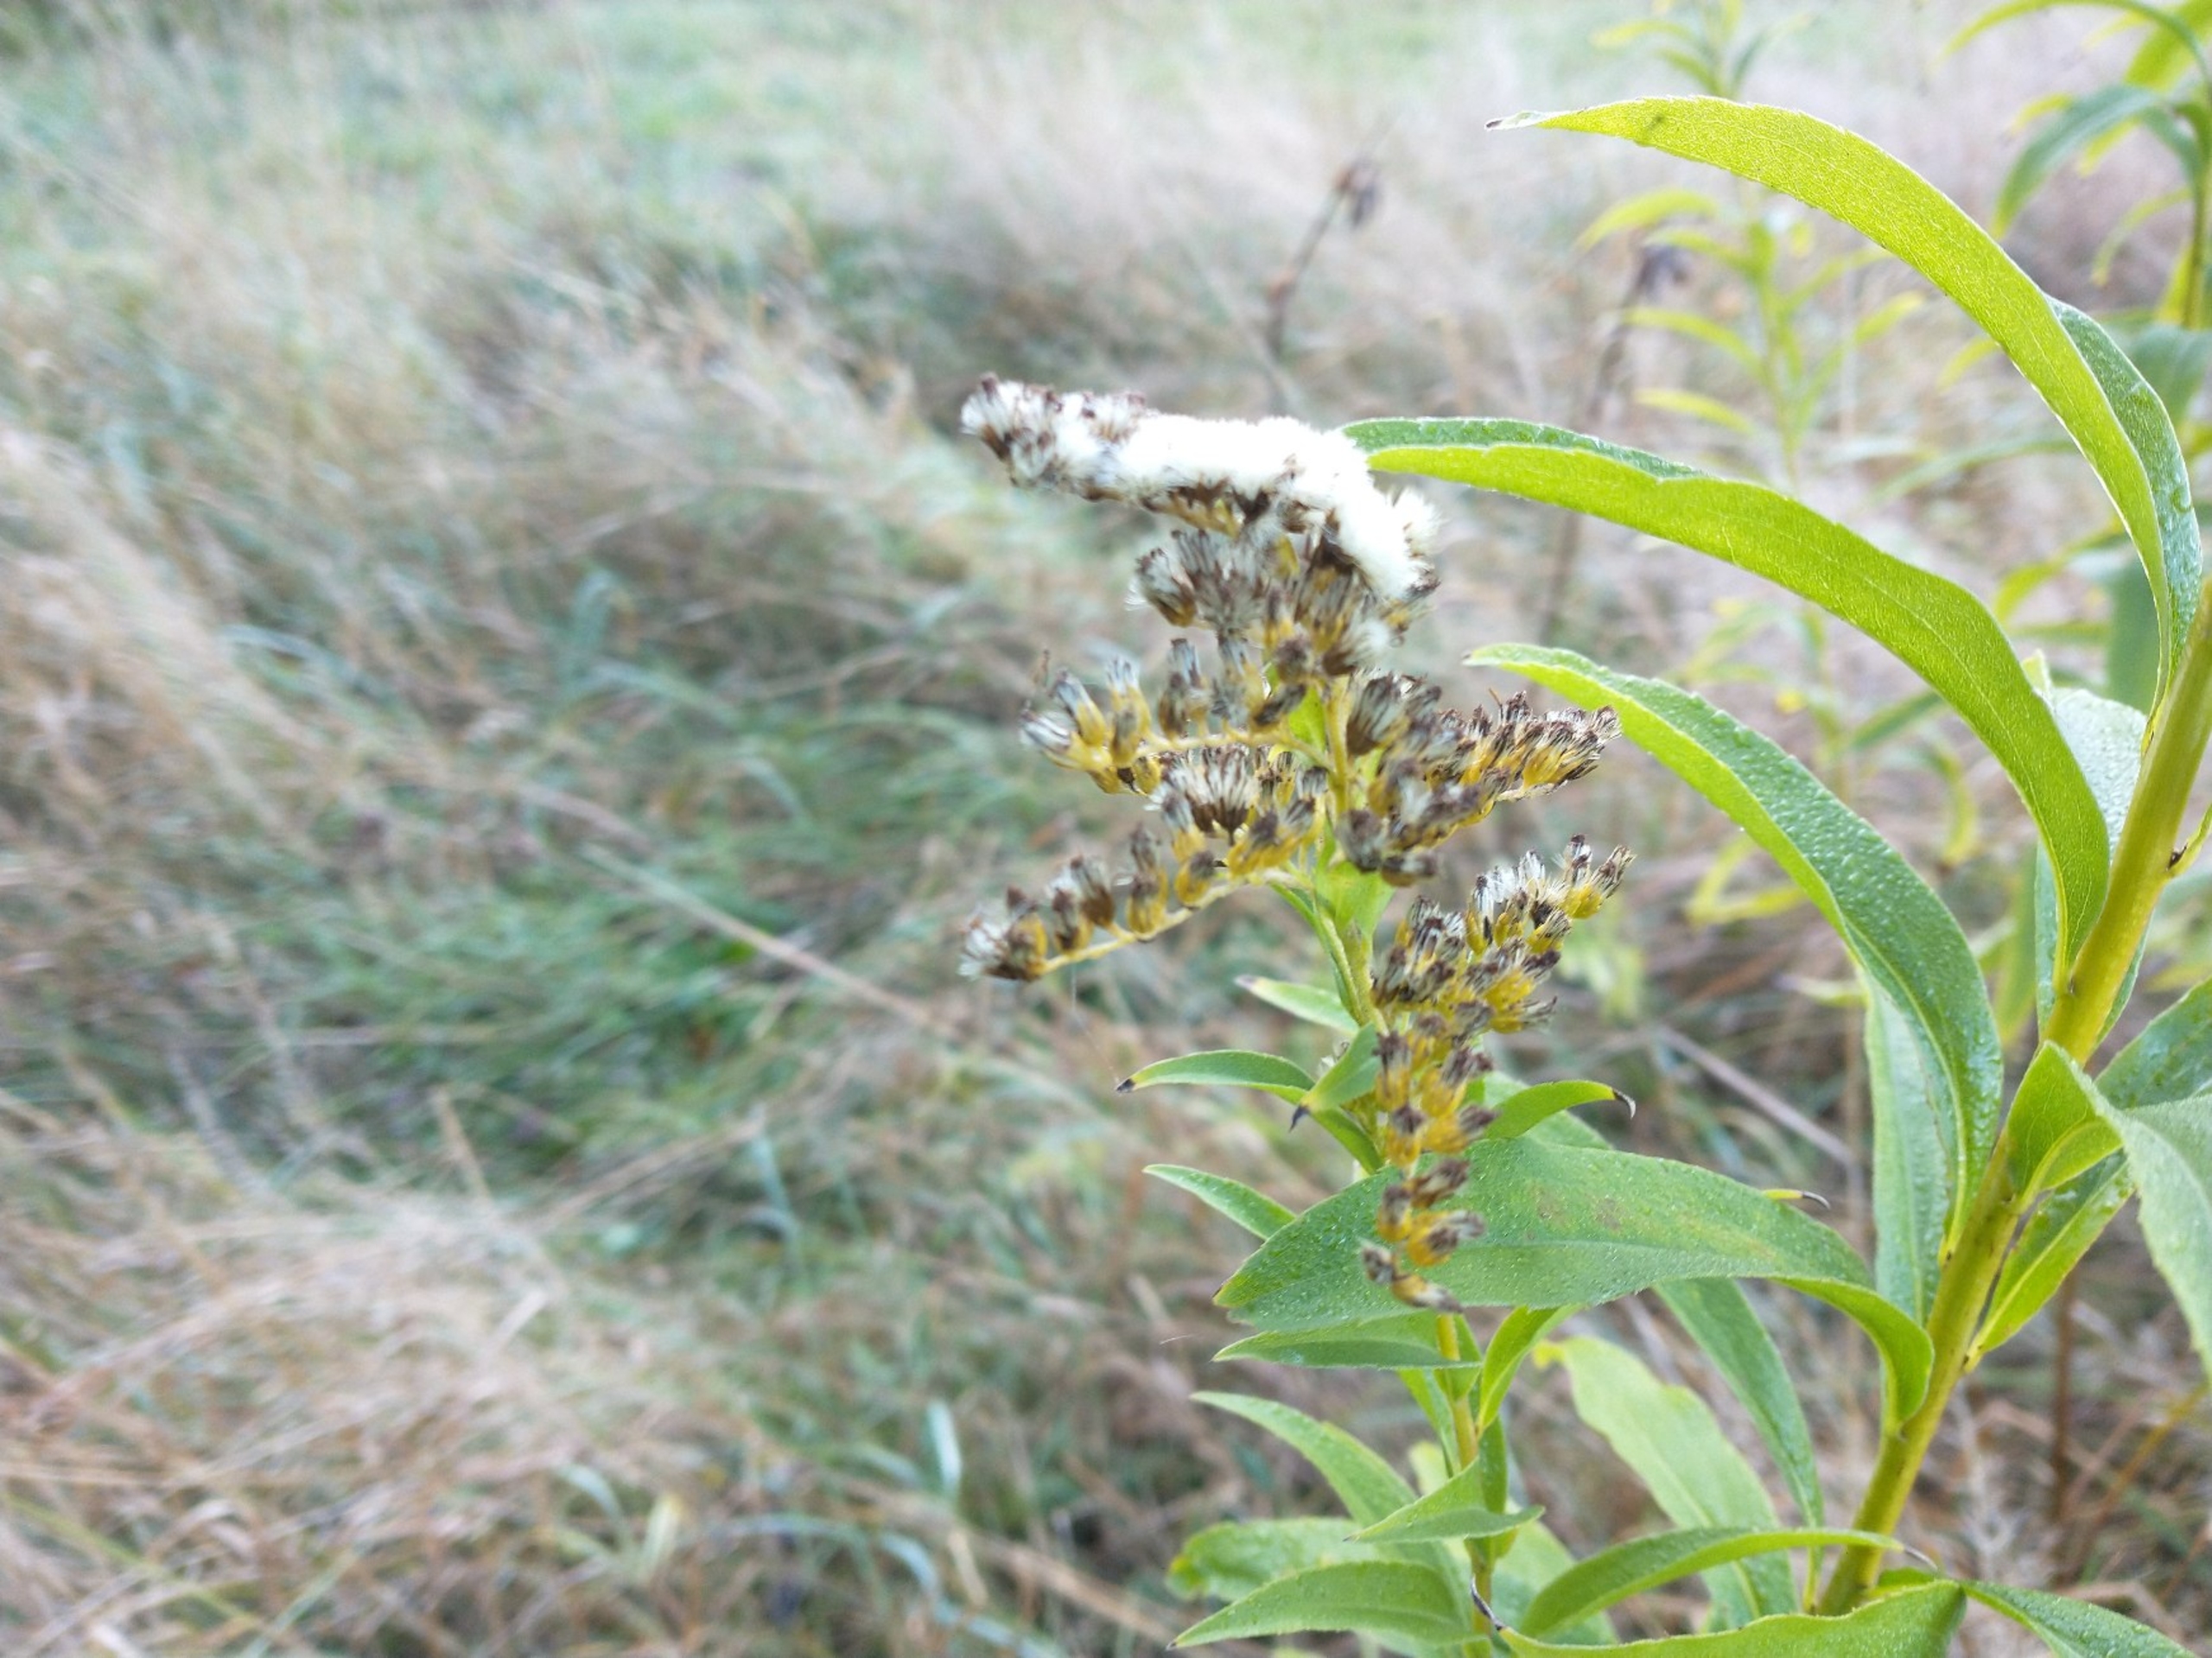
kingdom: Plantae
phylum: Tracheophyta
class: Magnoliopsida
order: Asterales
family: Asteraceae
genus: Solidago
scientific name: Solidago gigantea
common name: Sildig gyldenris
